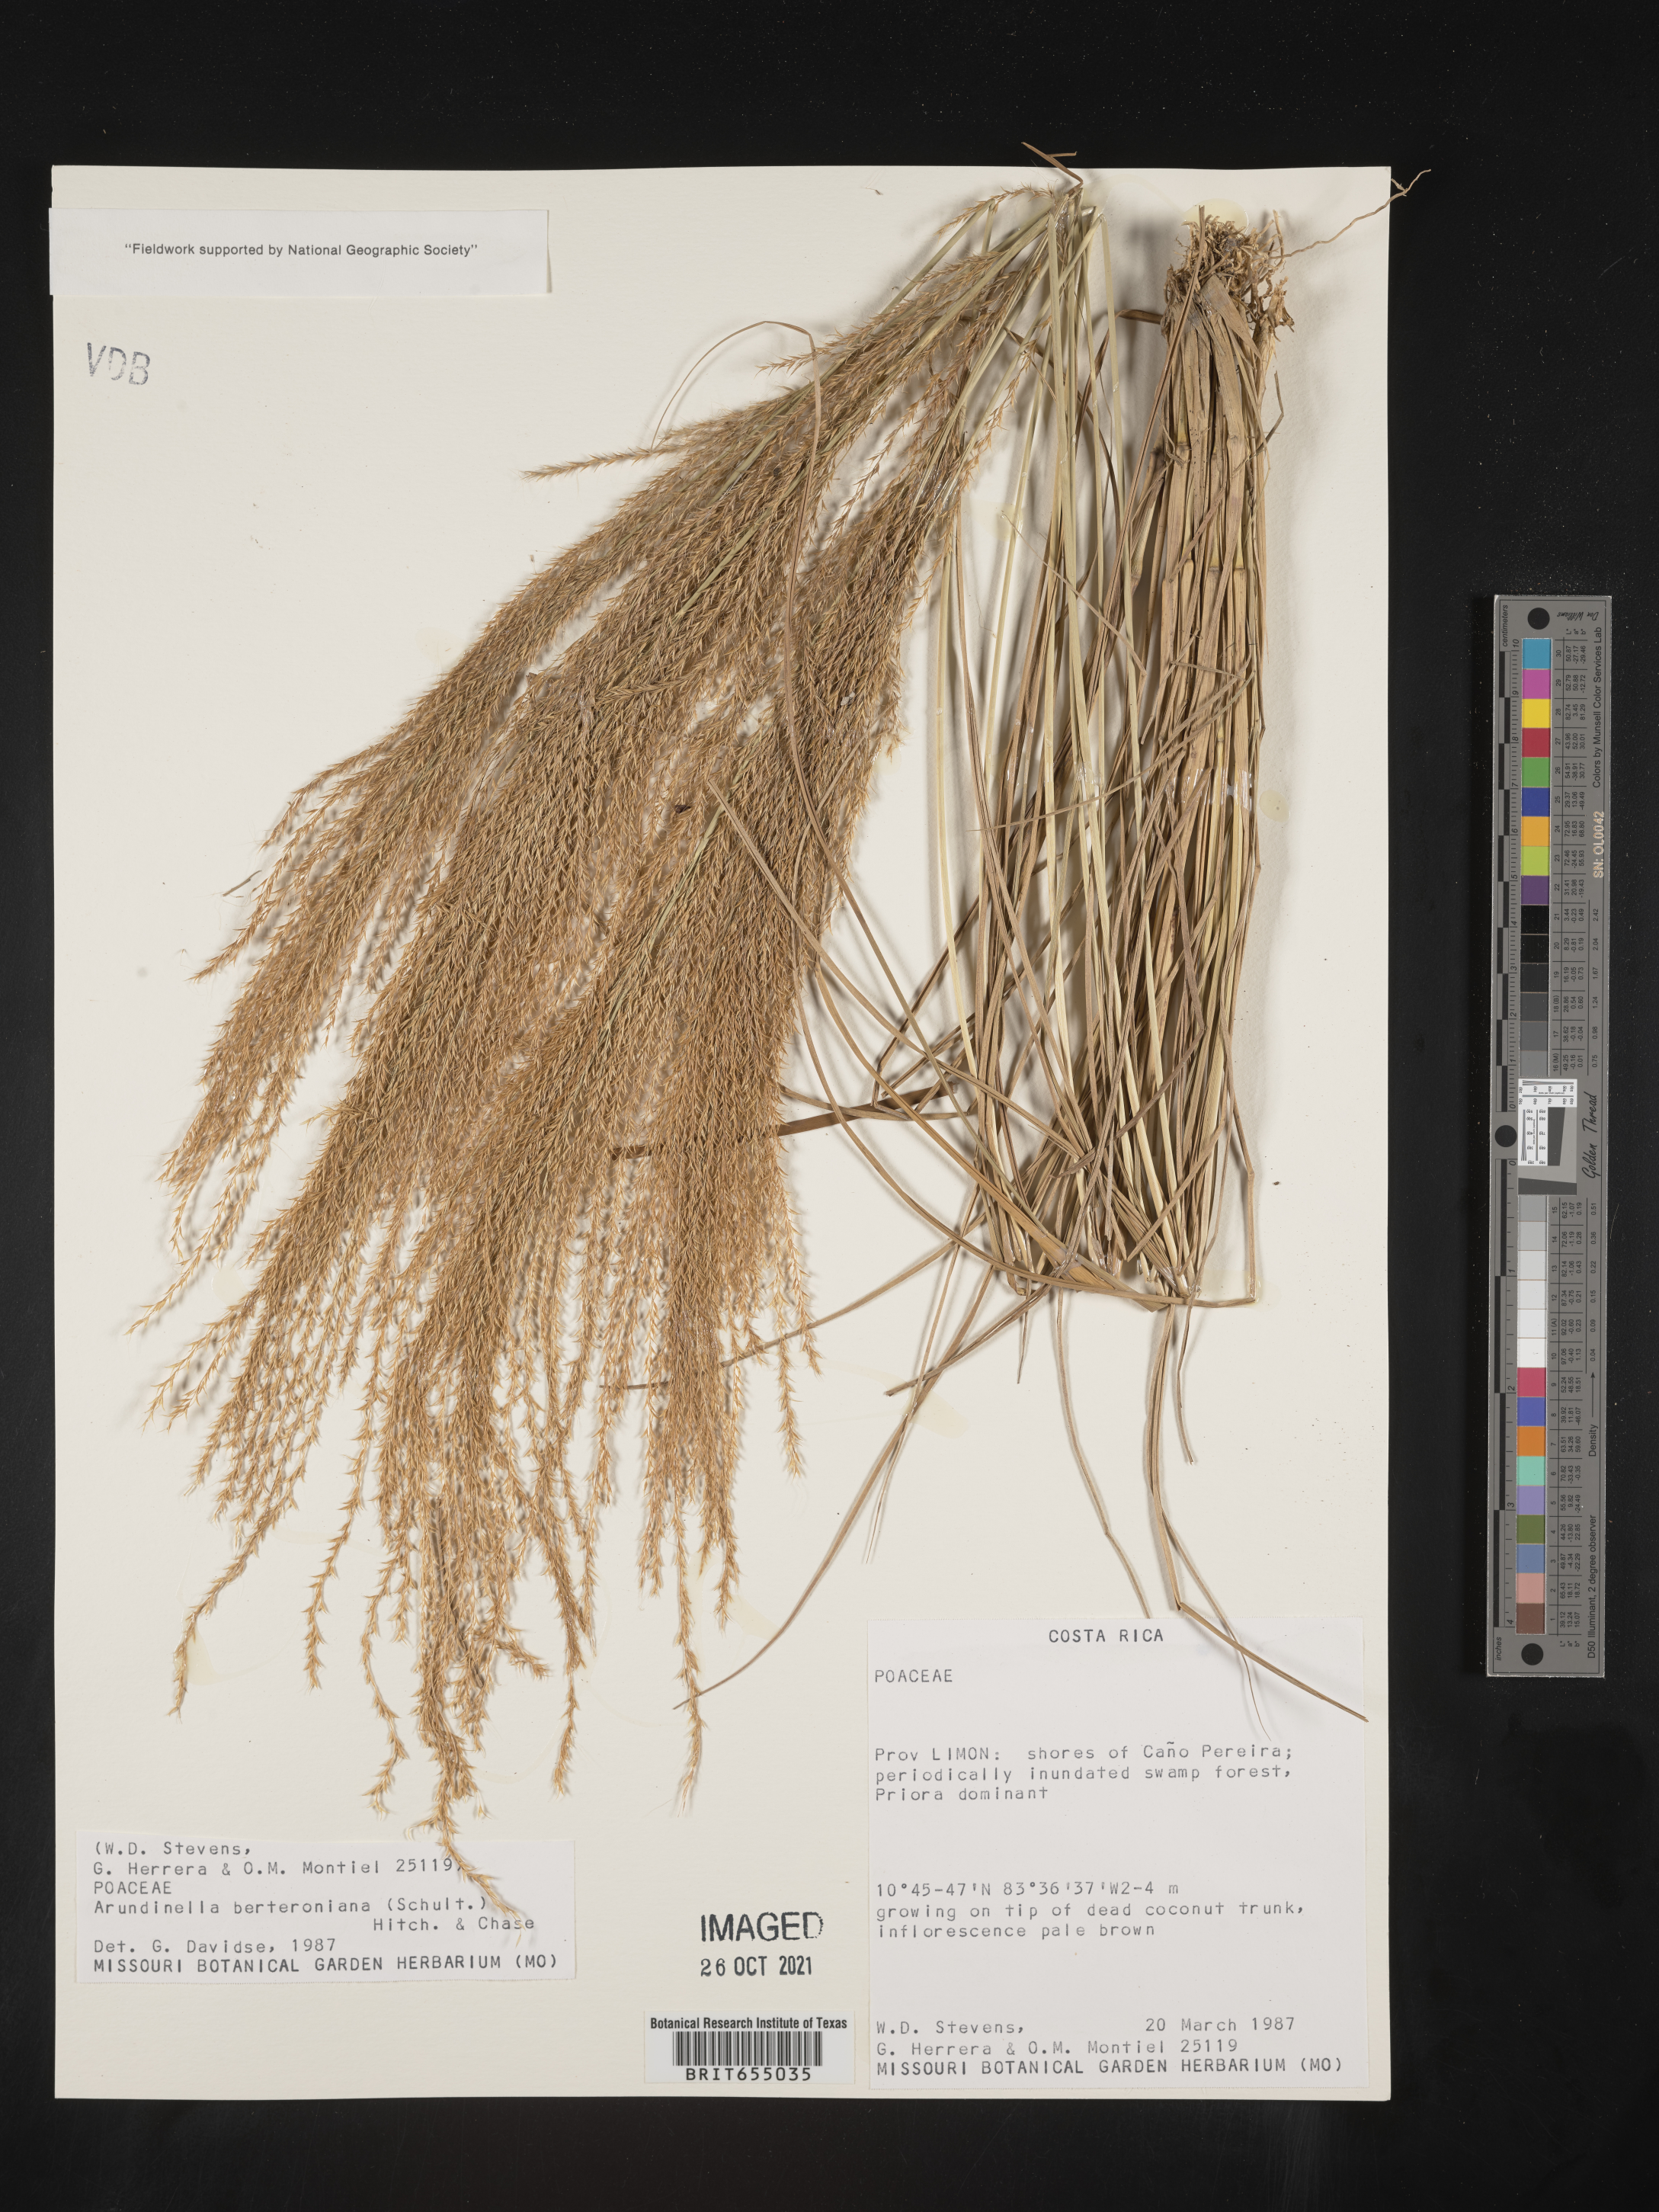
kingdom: Plantae
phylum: Tracheophyta
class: Liliopsida
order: Poales
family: Poaceae
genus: Arundinella
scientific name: Arundinella
